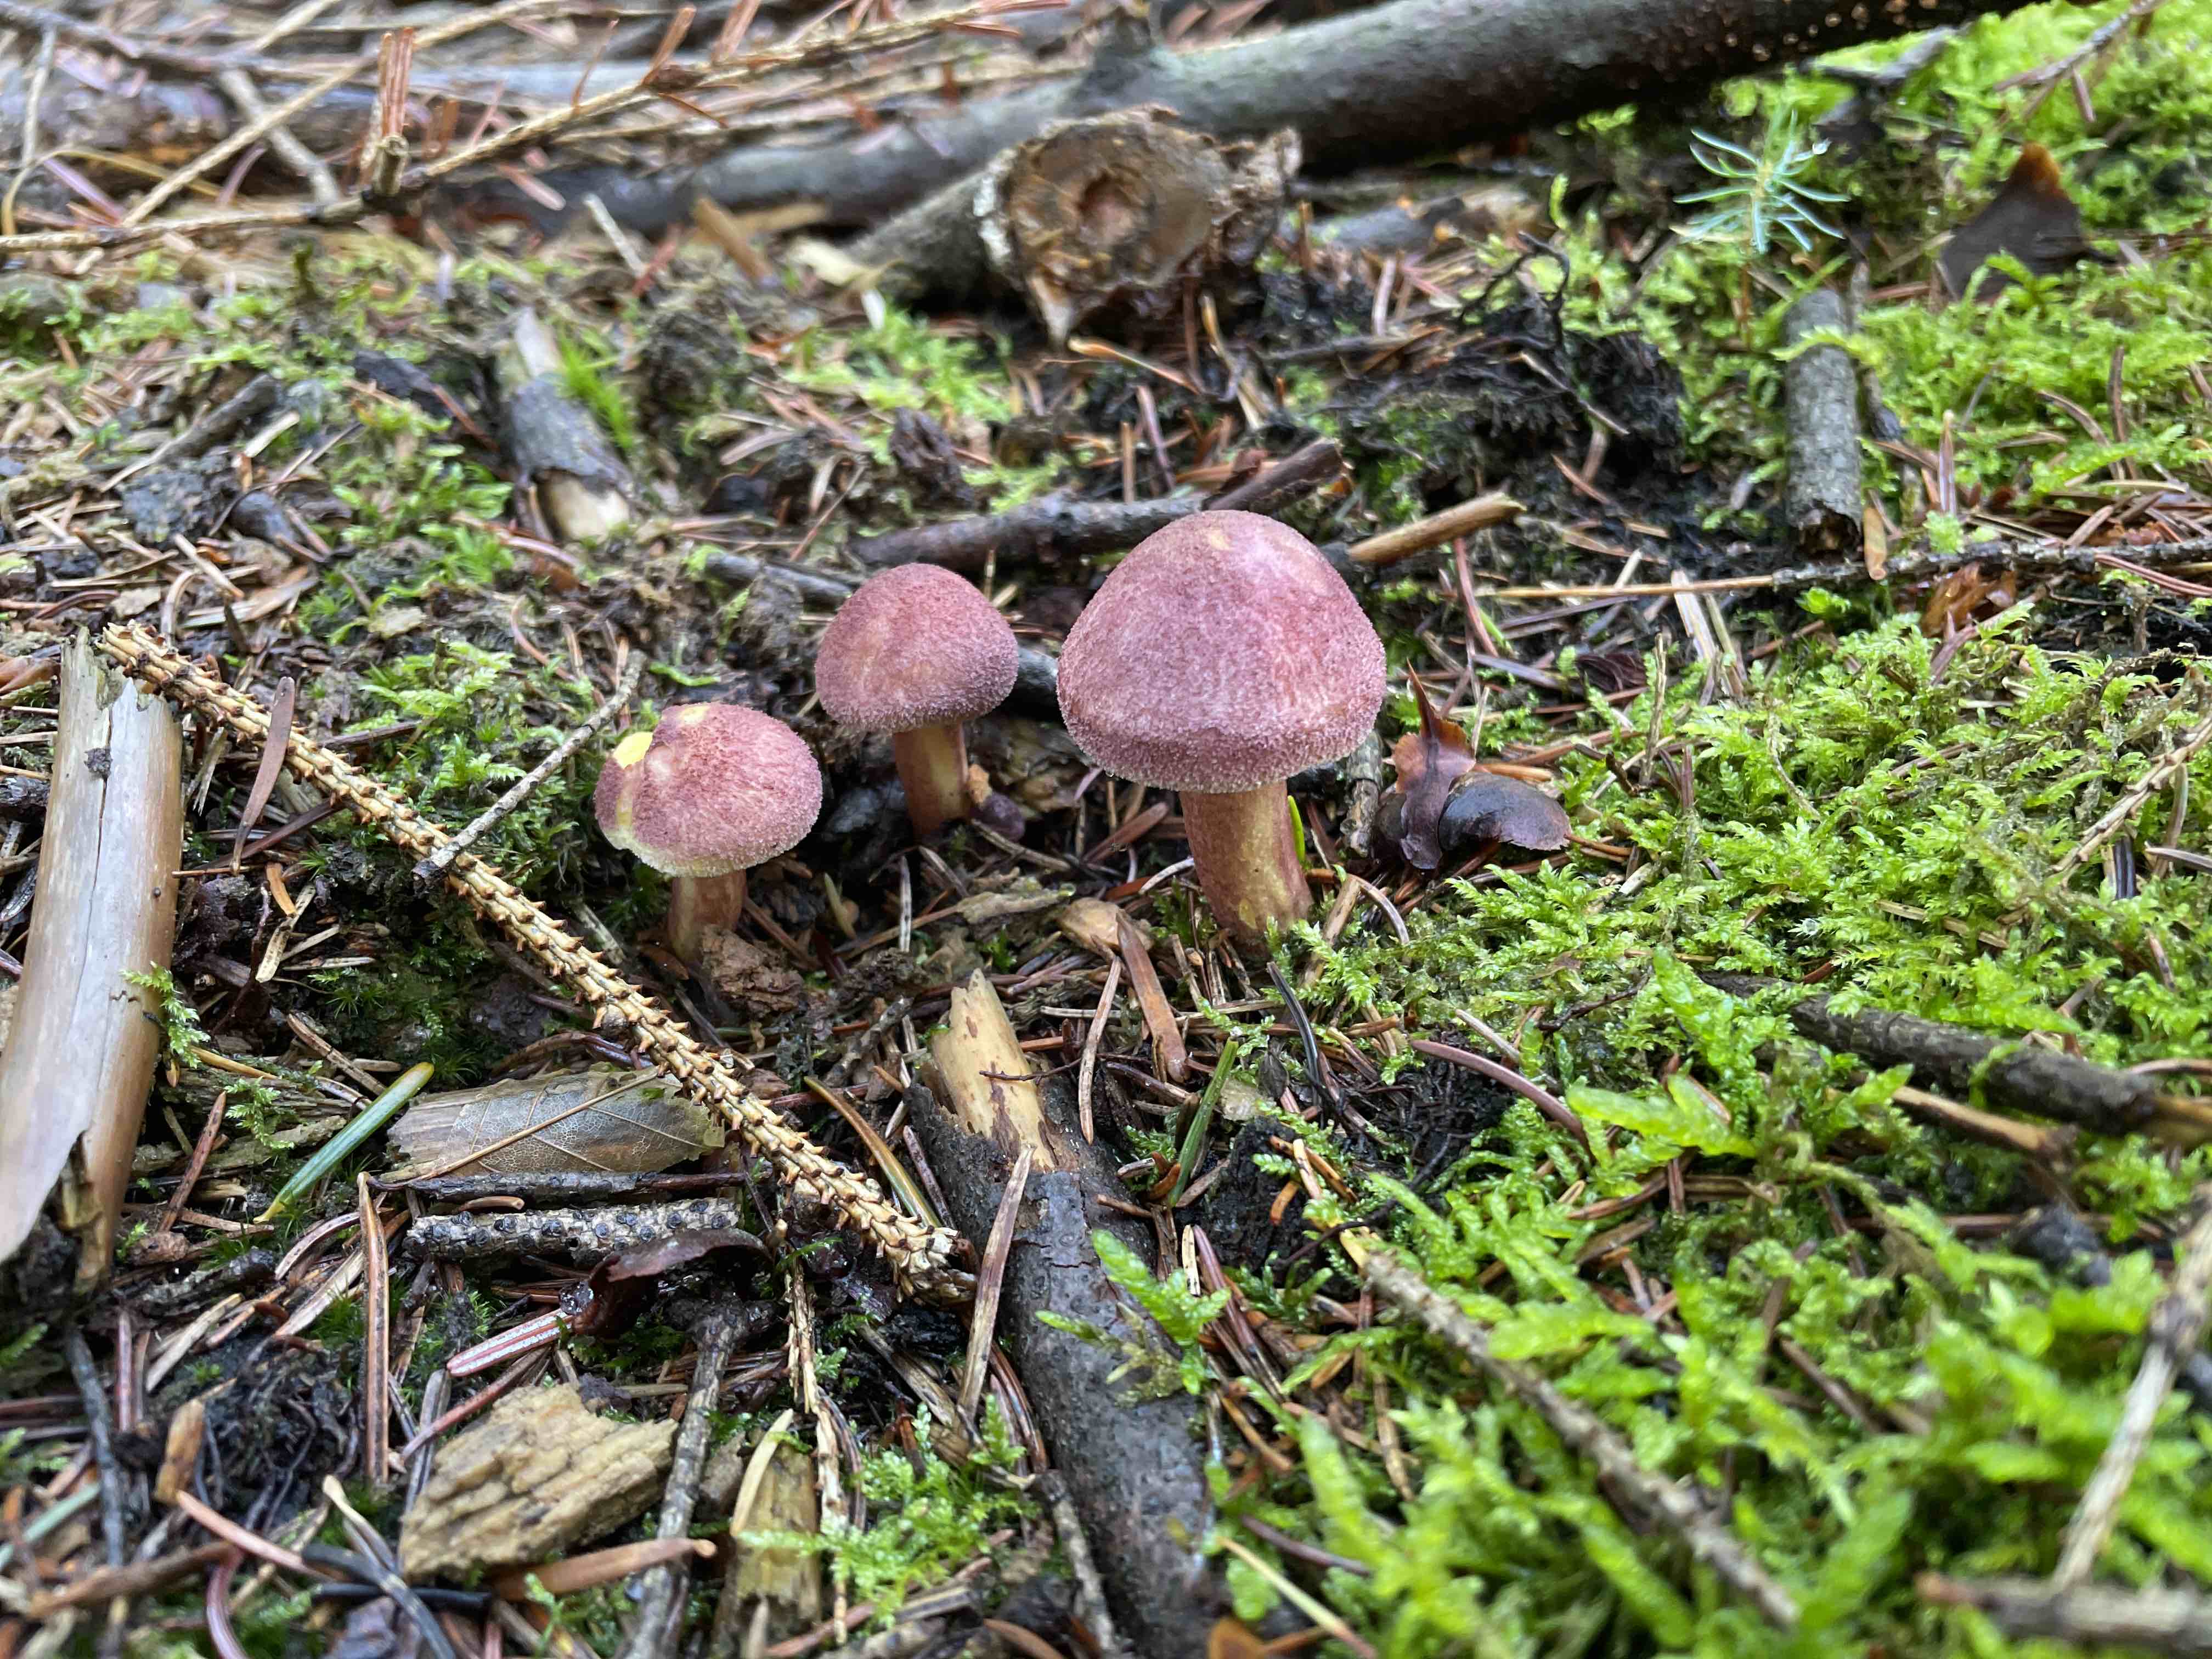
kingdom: Fungi
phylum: Basidiomycota
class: Agaricomycetes
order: Agaricales
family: Tricholomataceae
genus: Tricholomopsis
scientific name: Tricholomopsis rutilans
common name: purpur-væbnerhat
